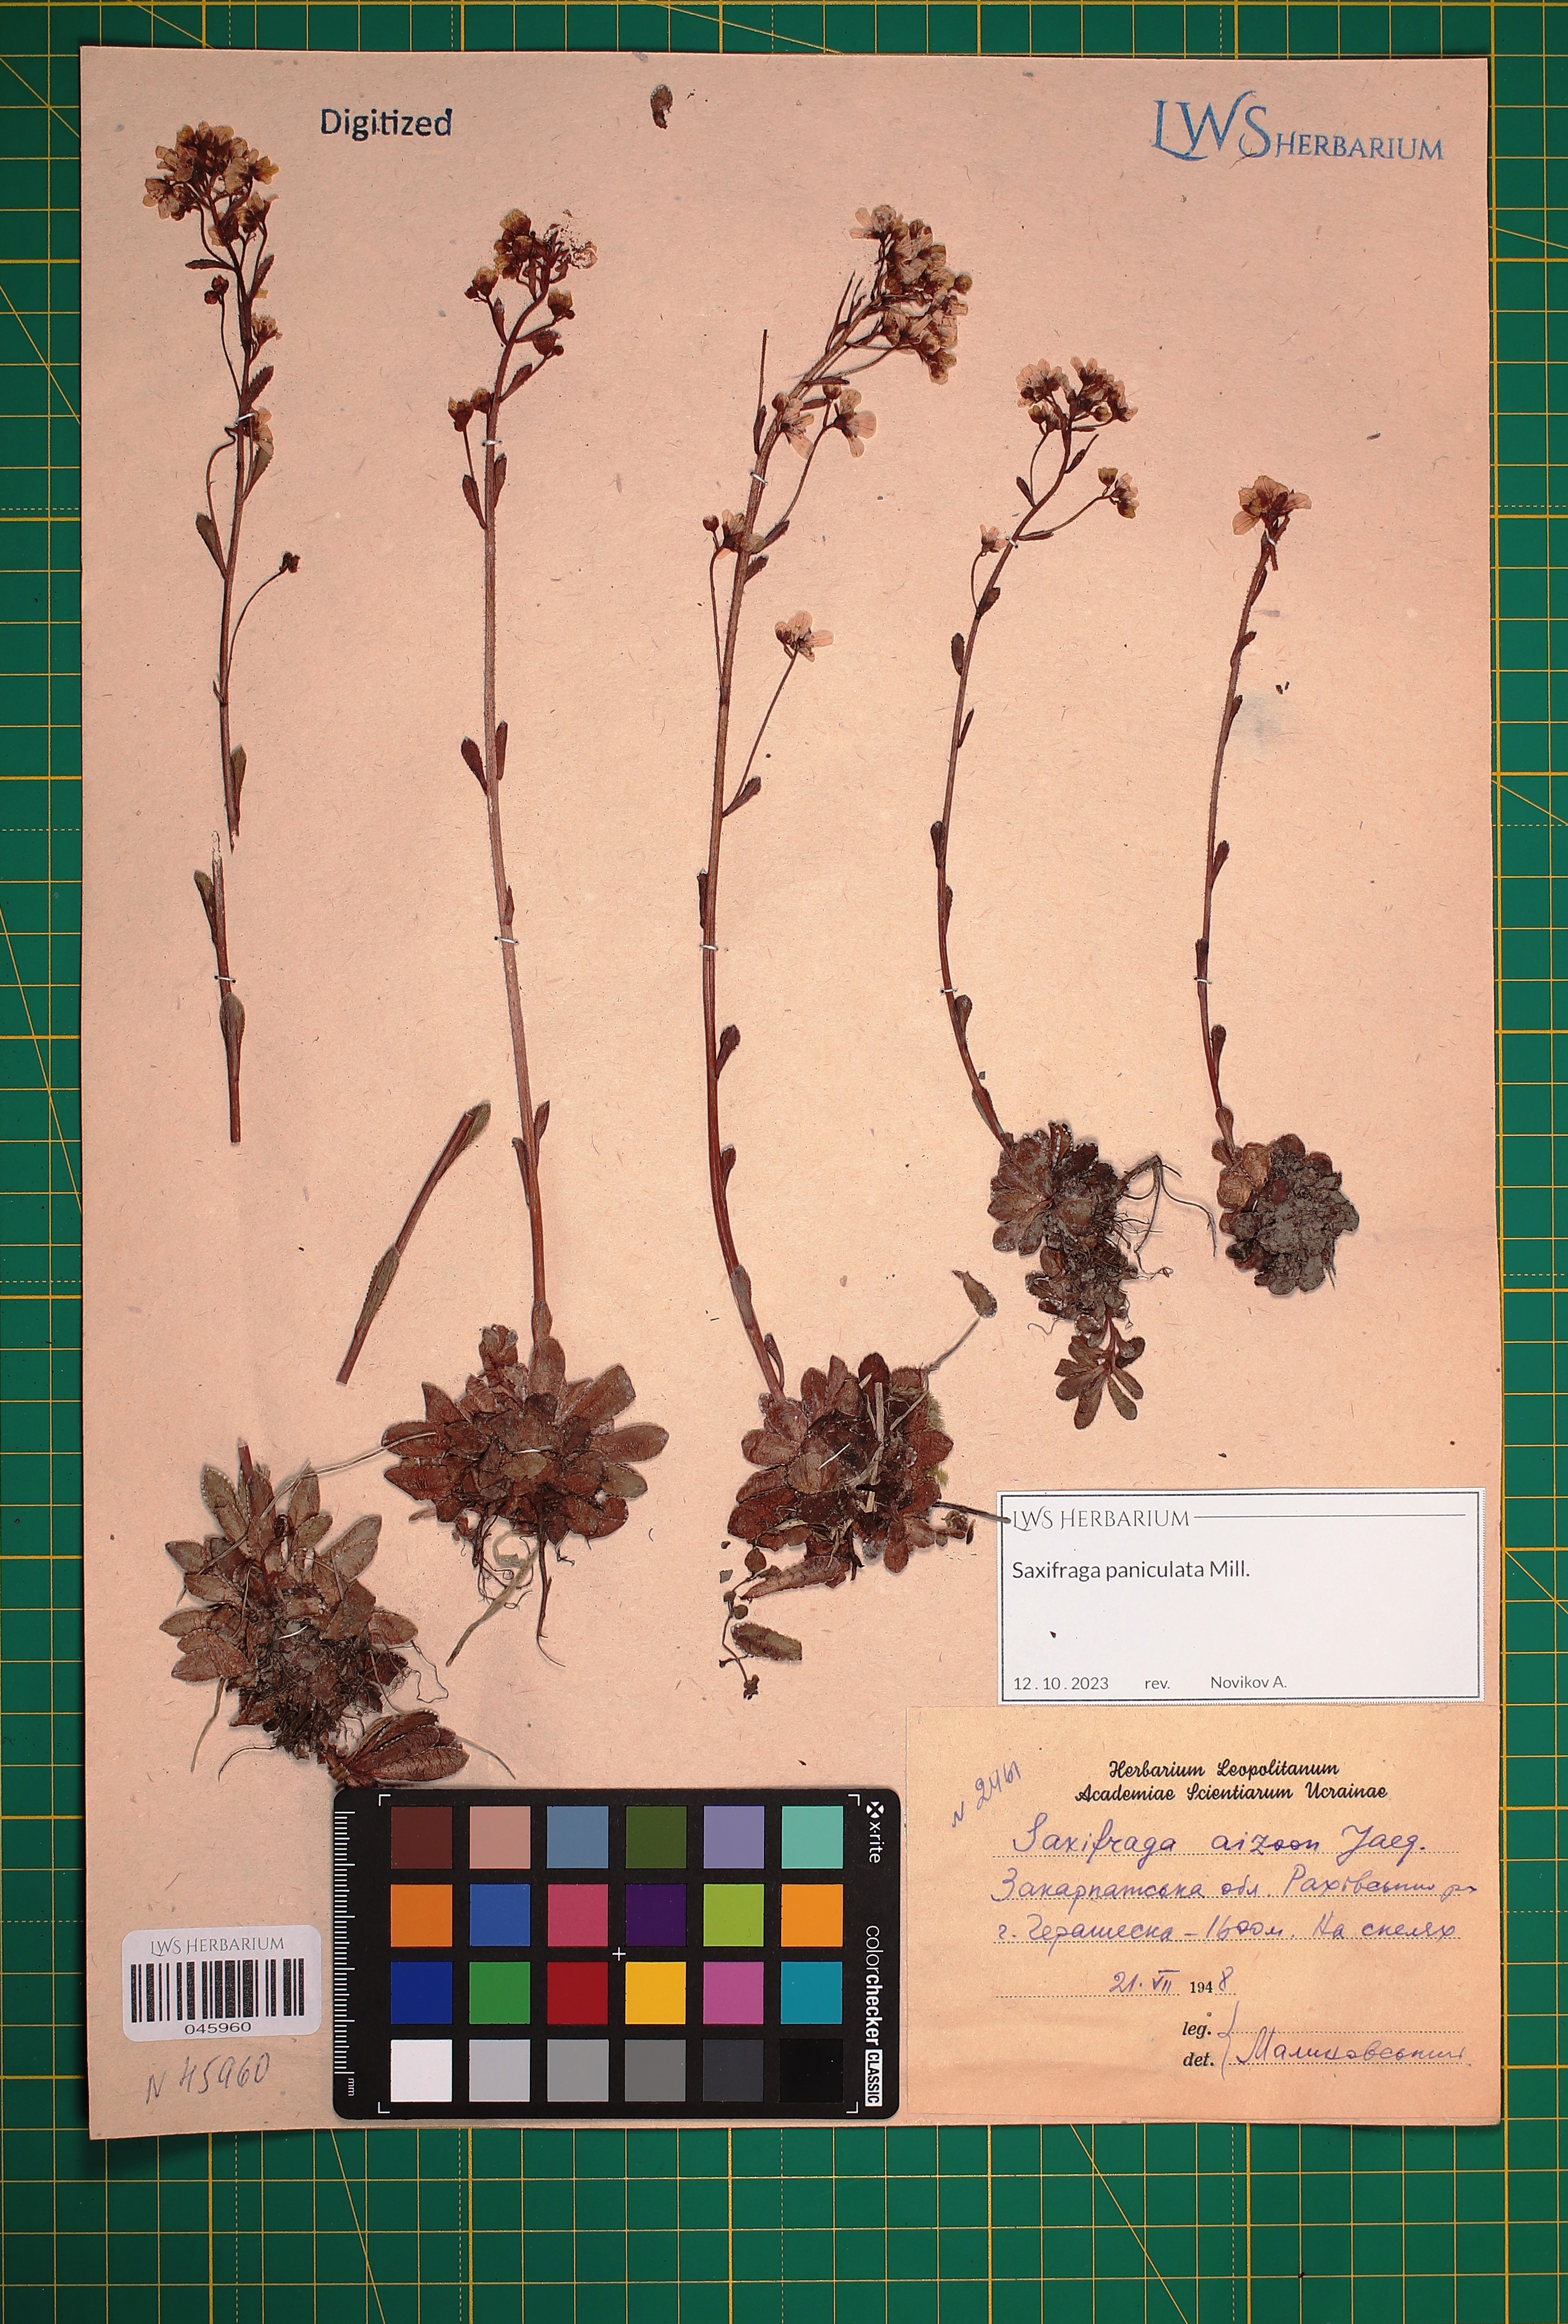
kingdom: Plantae
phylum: Tracheophyta
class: Magnoliopsida
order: Saxifragales
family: Saxifragaceae
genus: Saxifraga
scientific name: Saxifraga paniculata
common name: Livelong saxifrage
